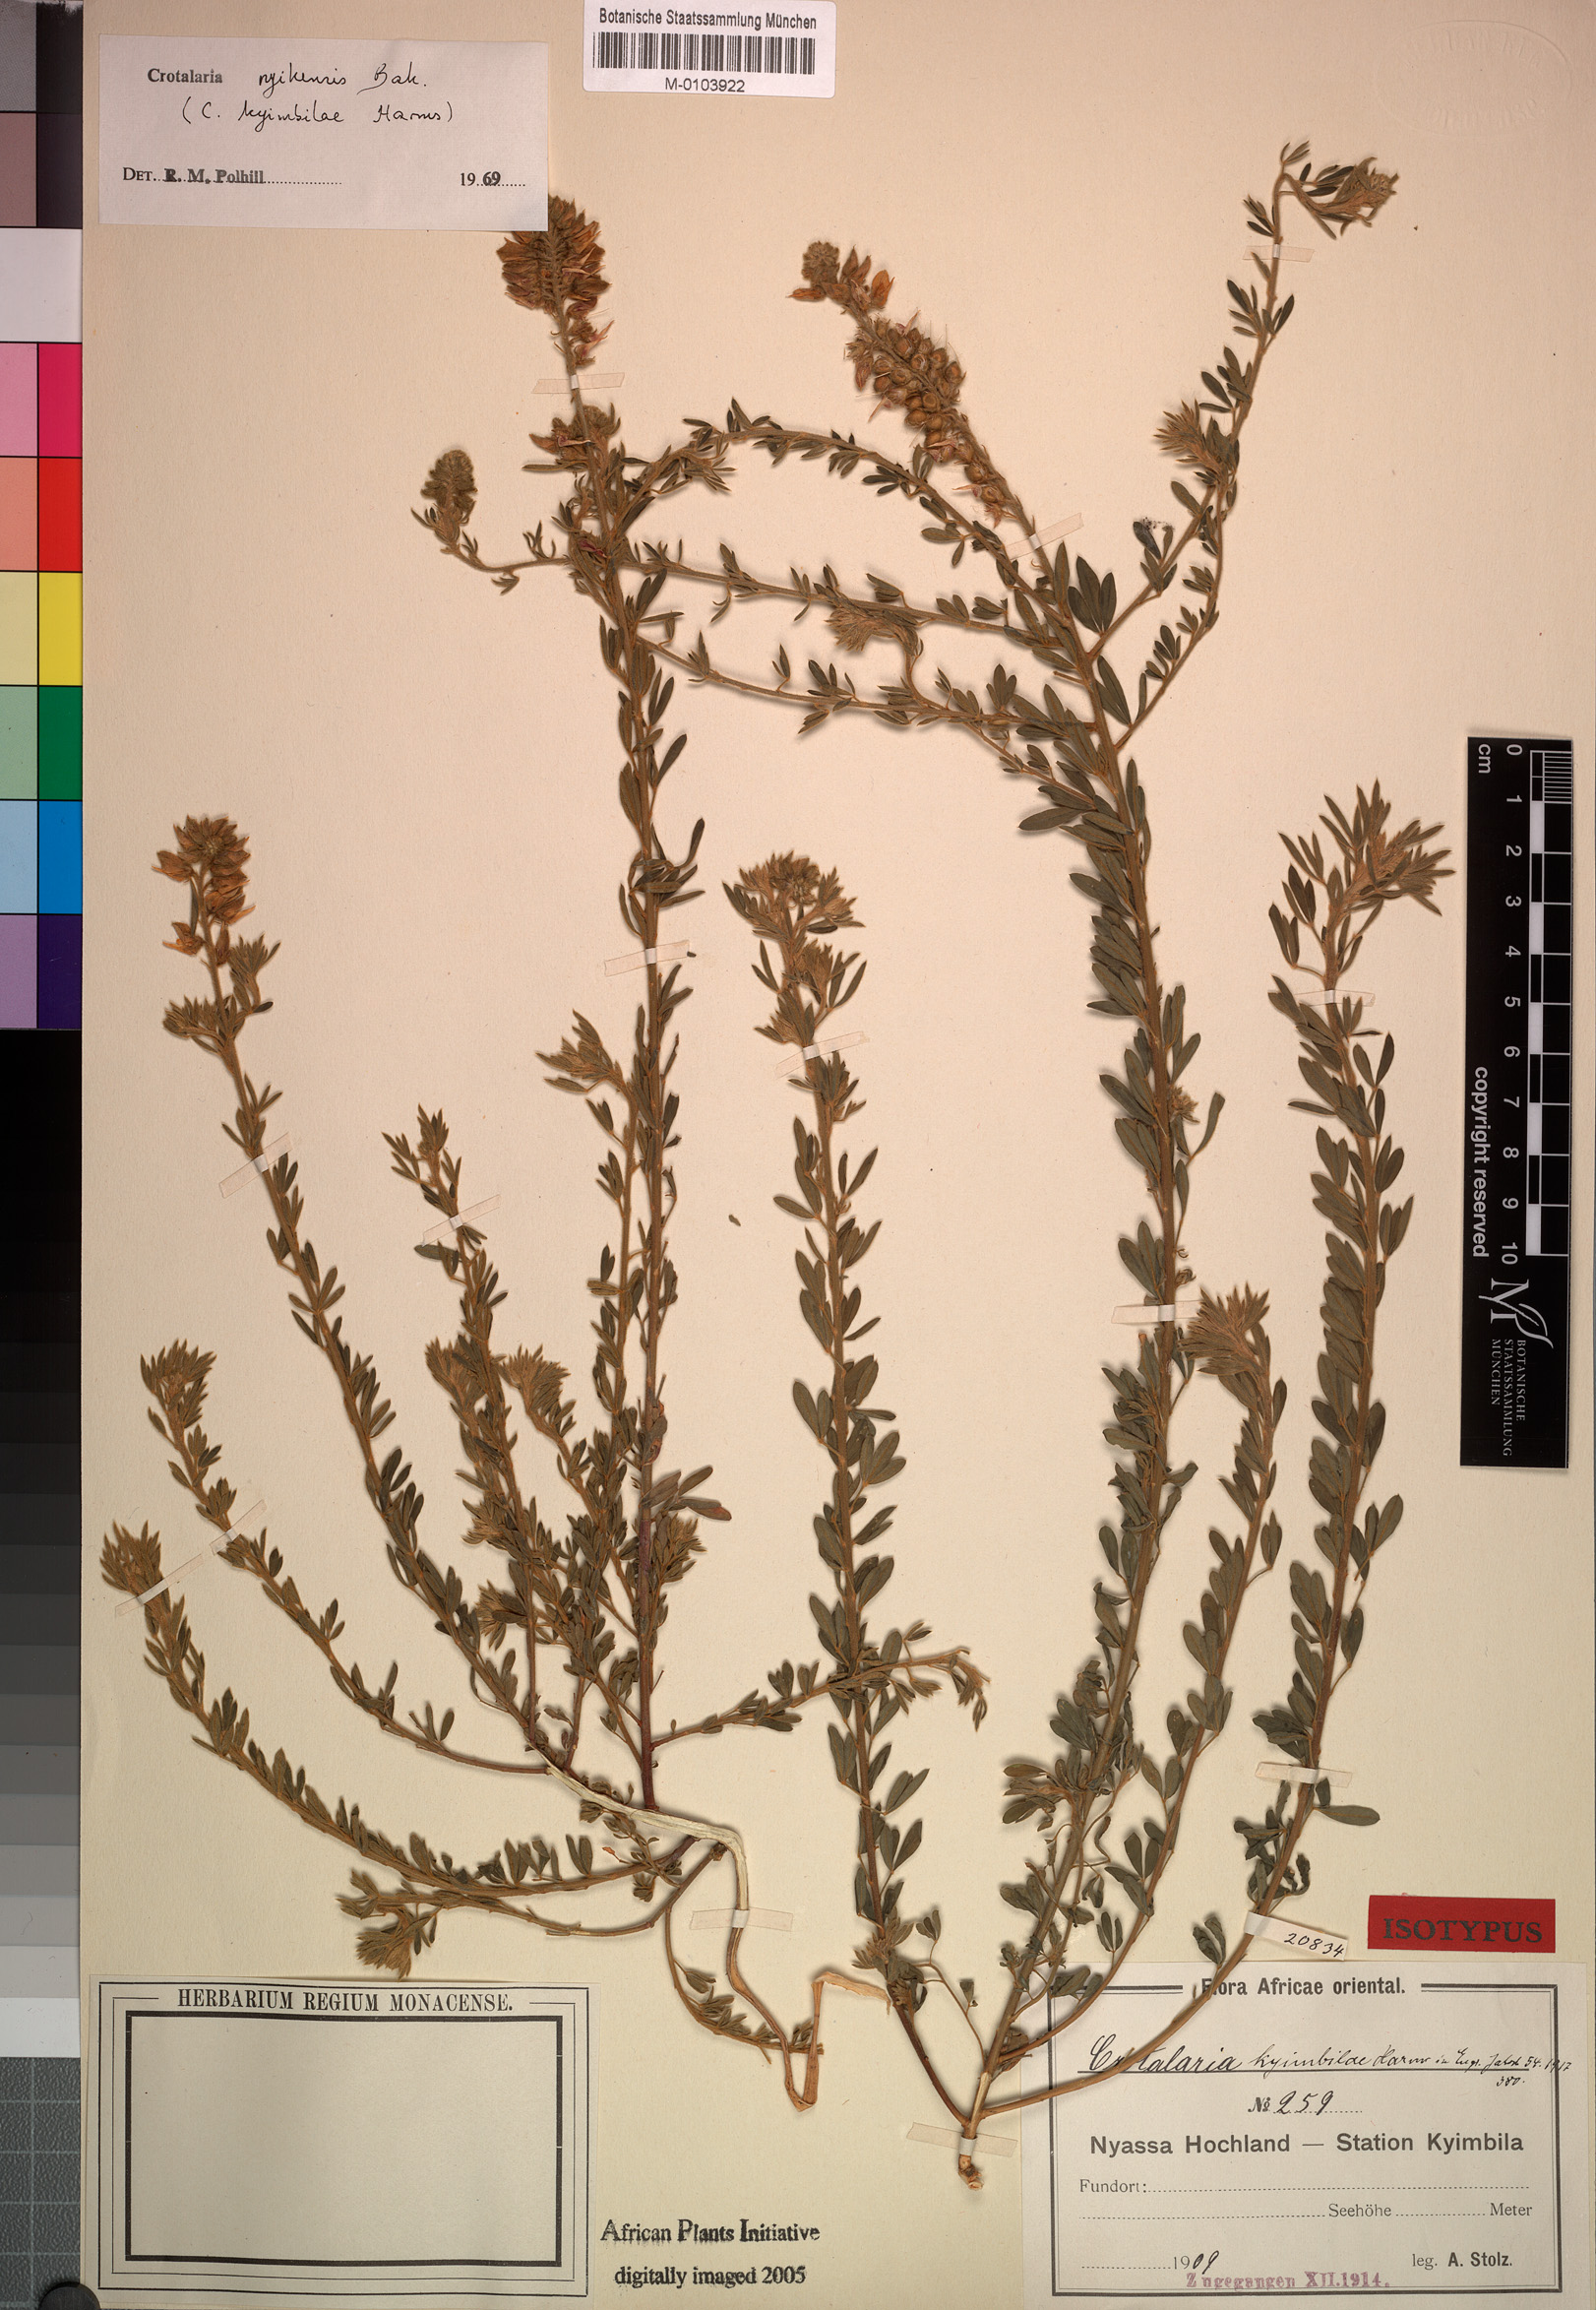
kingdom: Plantae
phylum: Tracheophyta
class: Magnoliopsida
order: Fabales
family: Fabaceae
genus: Crotalaria
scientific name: Crotalaria nyikensis
